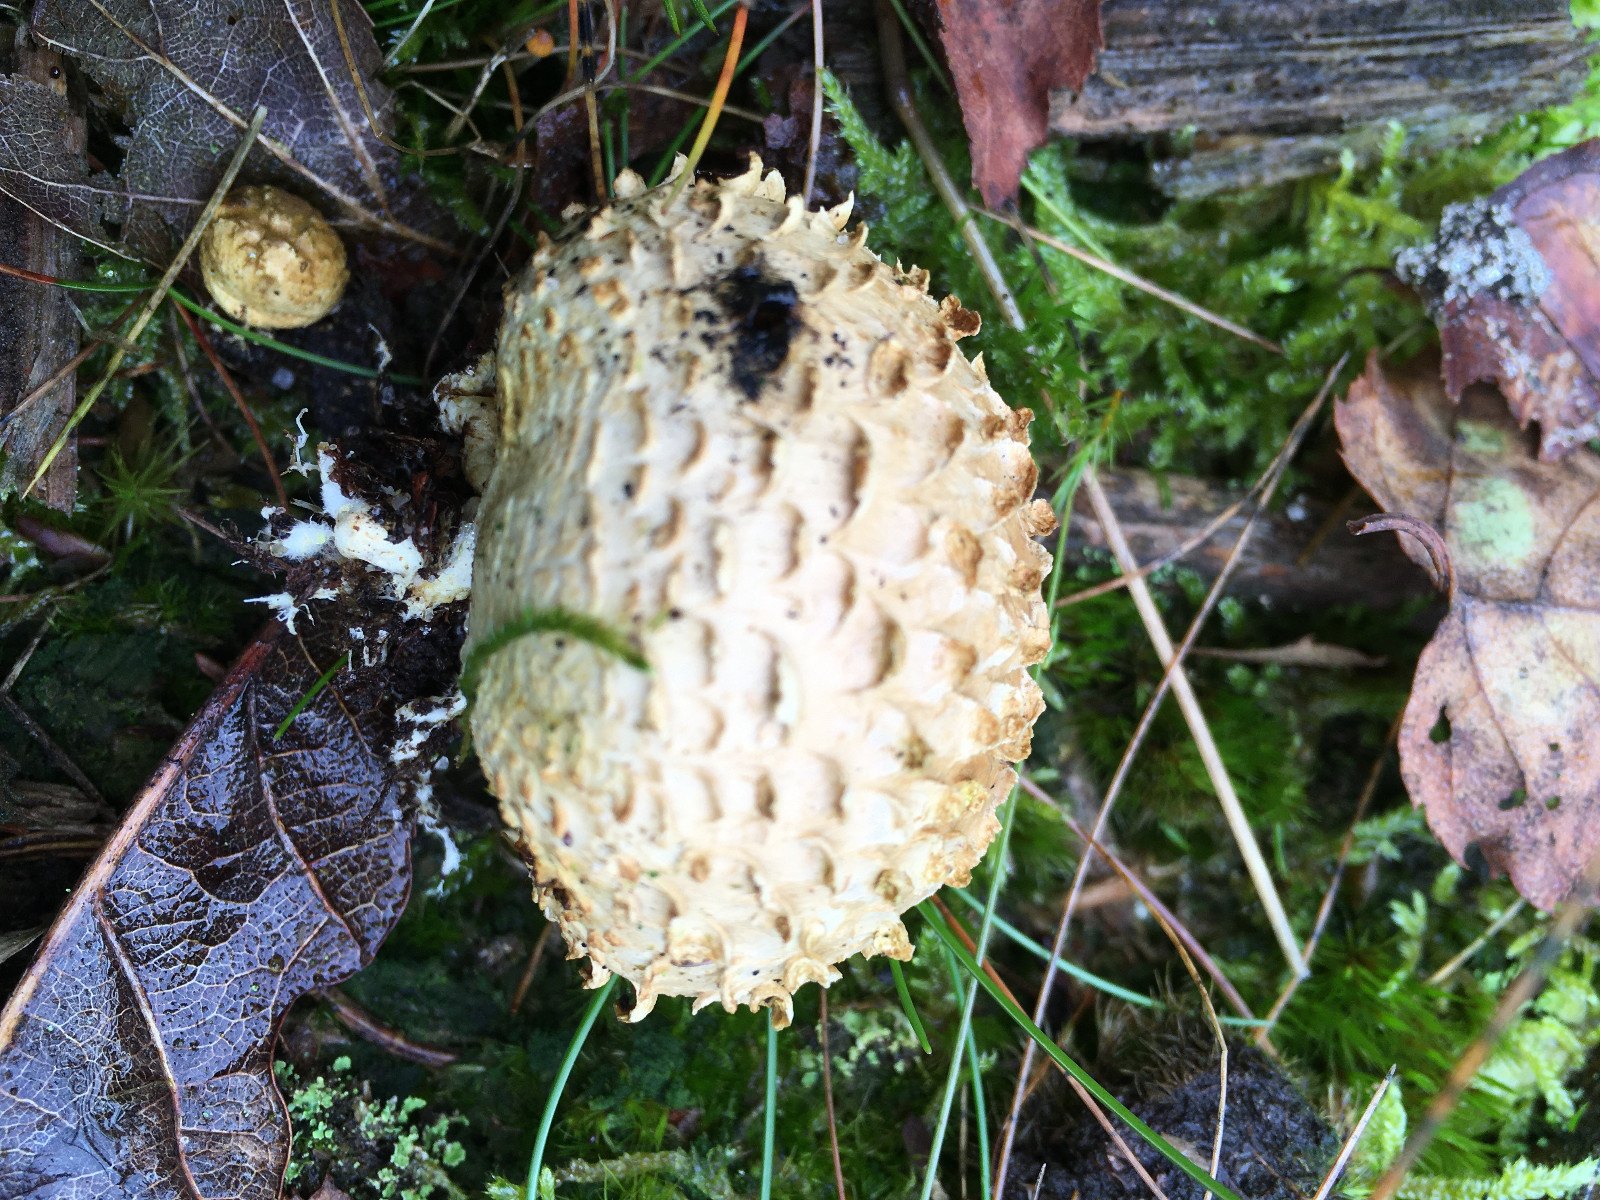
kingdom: Fungi
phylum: Basidiomycota
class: Agaricomycetes
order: Boletales
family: Sclerodermataceae
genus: Scleroderma
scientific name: Scleroderma citrinum
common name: almindelig bruskbold
